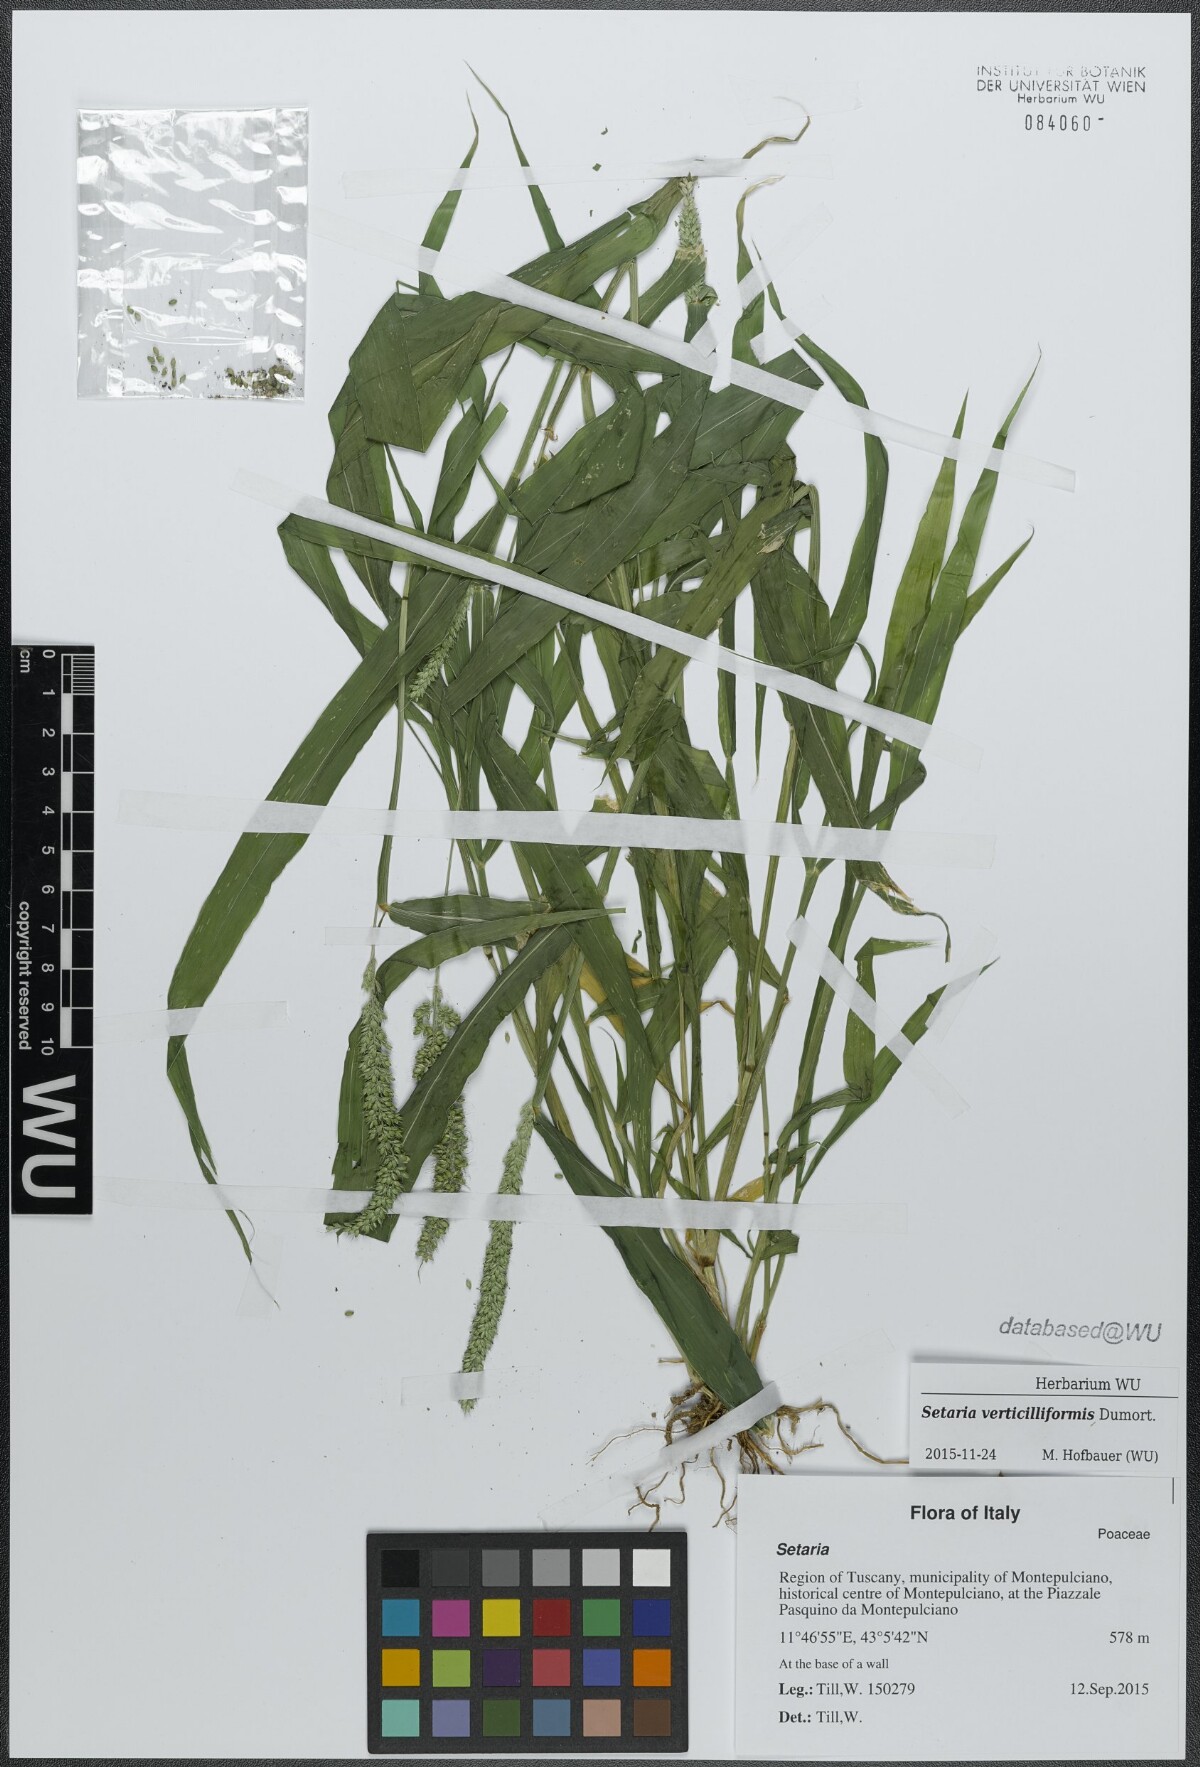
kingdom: Plantae
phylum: Tracheophyta
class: Liliopsida
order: Poales
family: Poaceae
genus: Setaria
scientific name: Setaria verticillata
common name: Hooked bristlegrass
